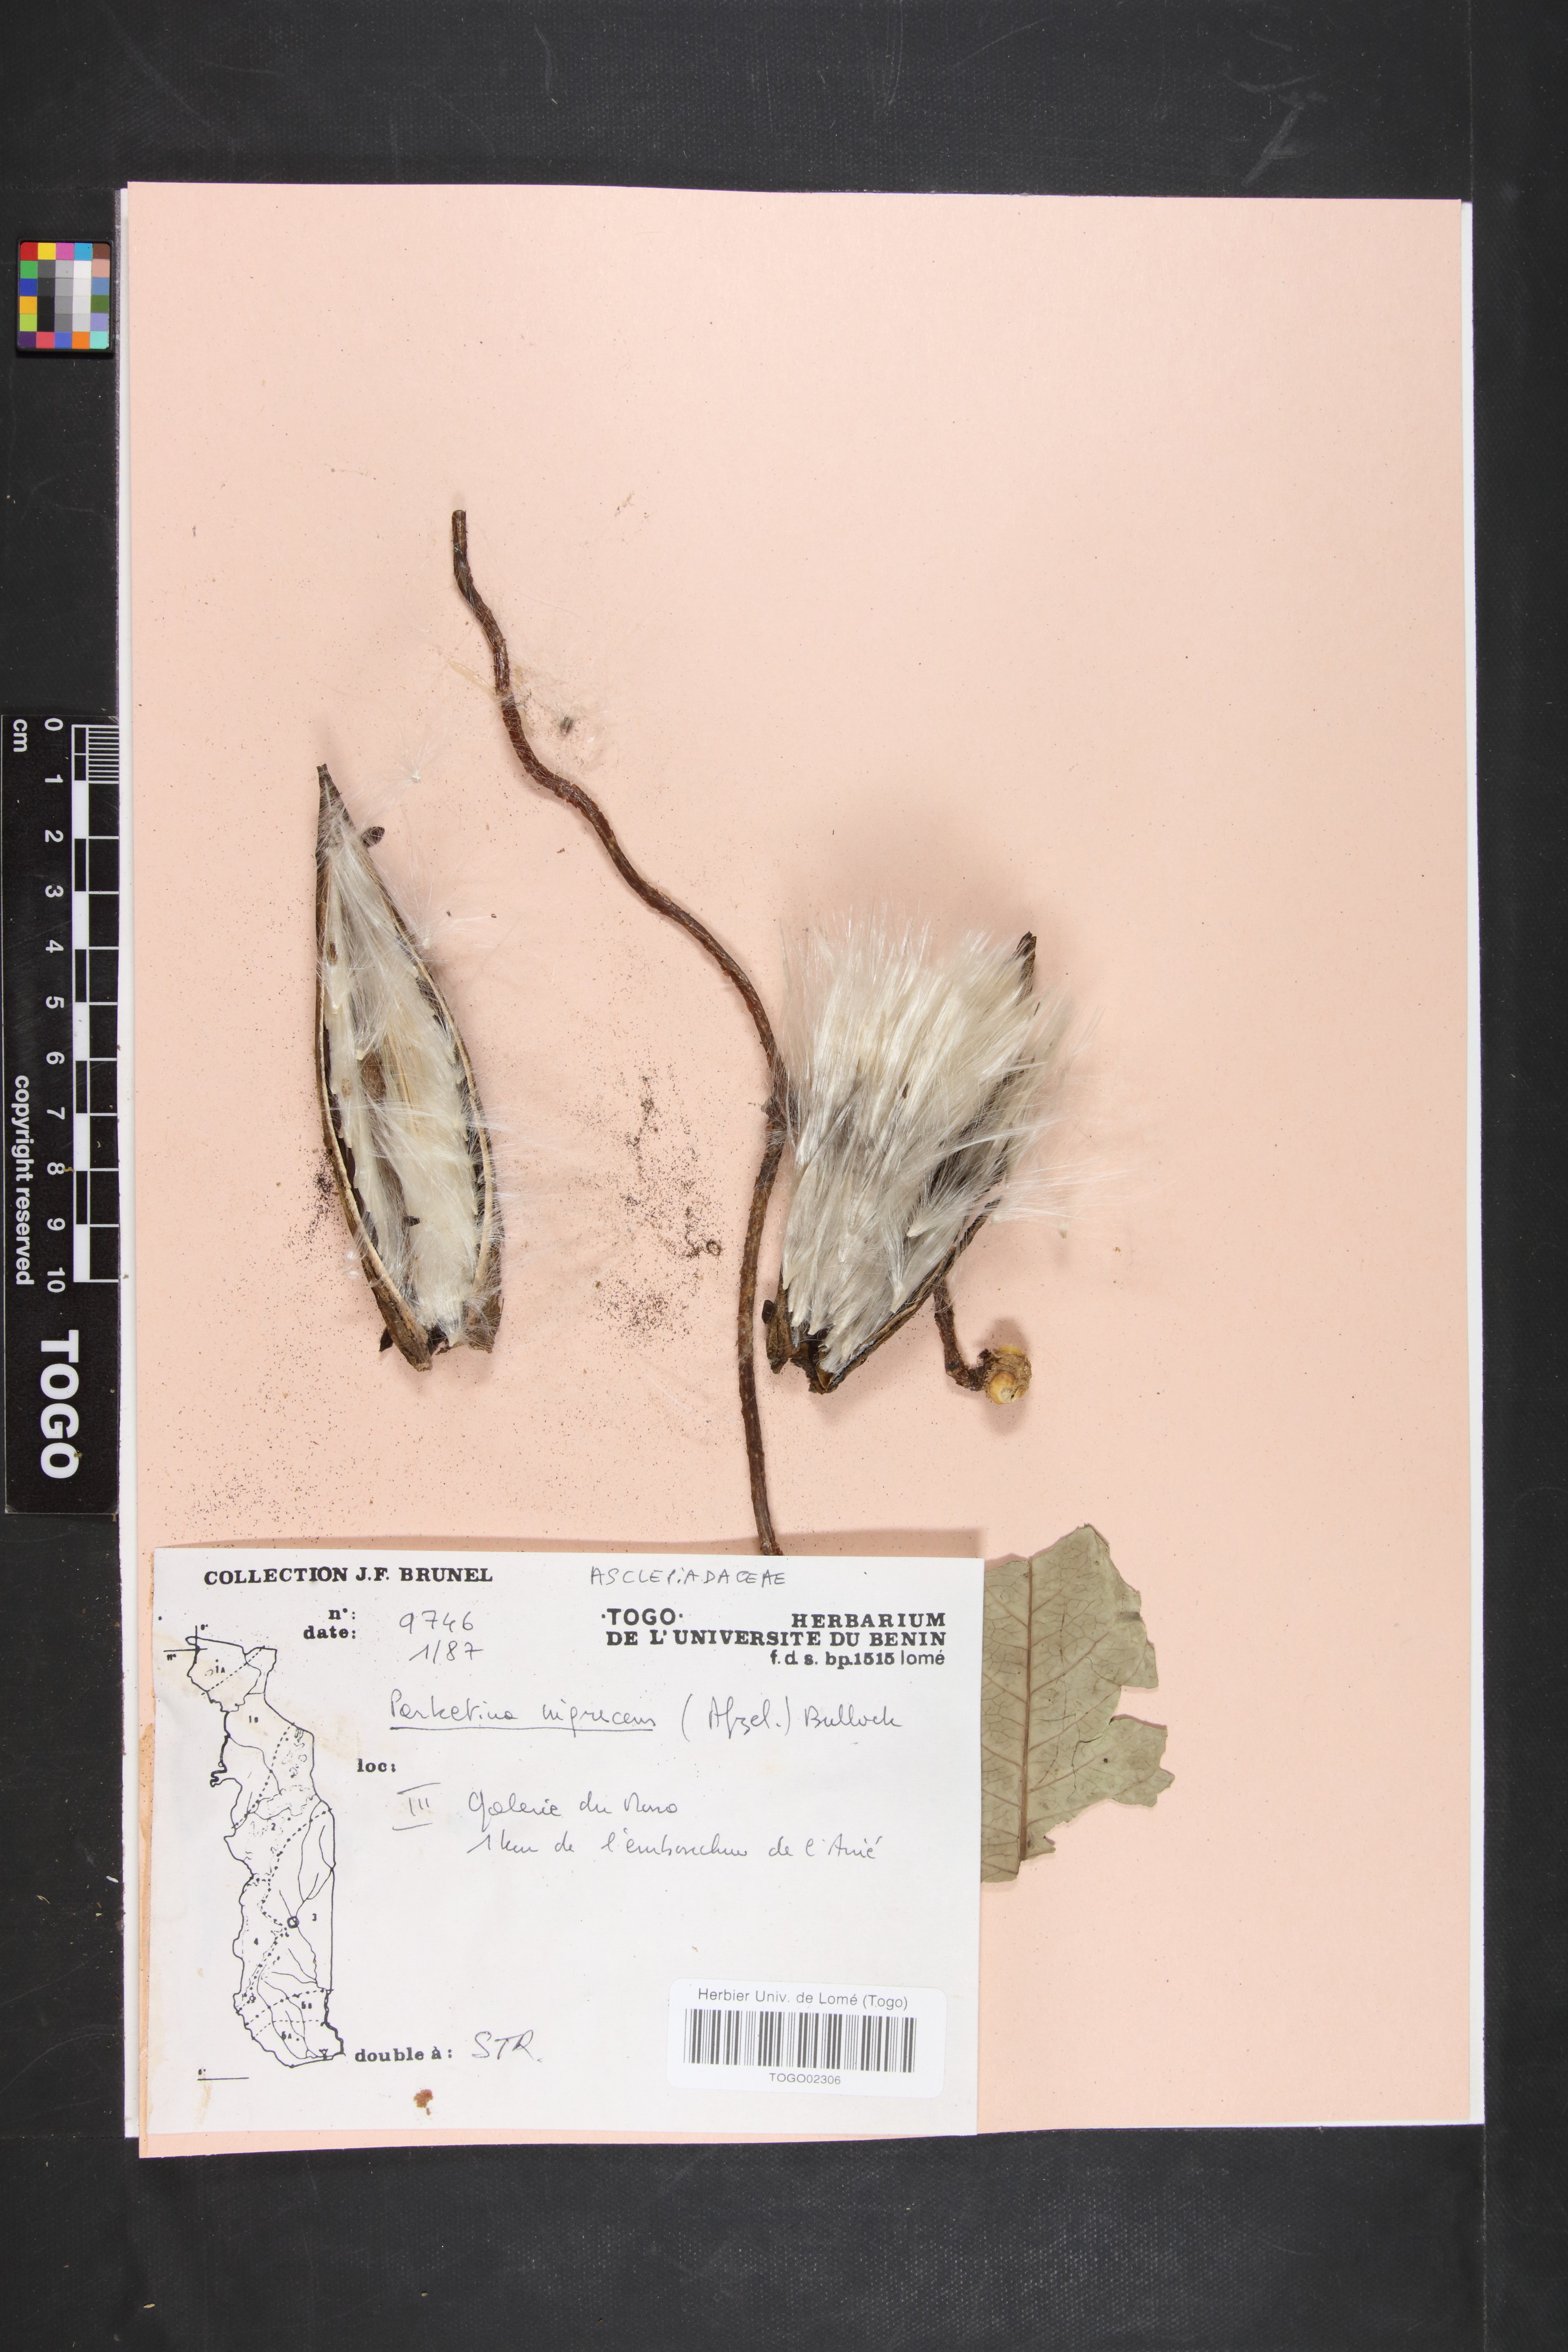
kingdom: Plantae
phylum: Tracheophyta
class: Magnoliopsida
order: Gentianales
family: Apocynaceae
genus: Cryptolepis
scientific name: Cryptolepis nigrescens
